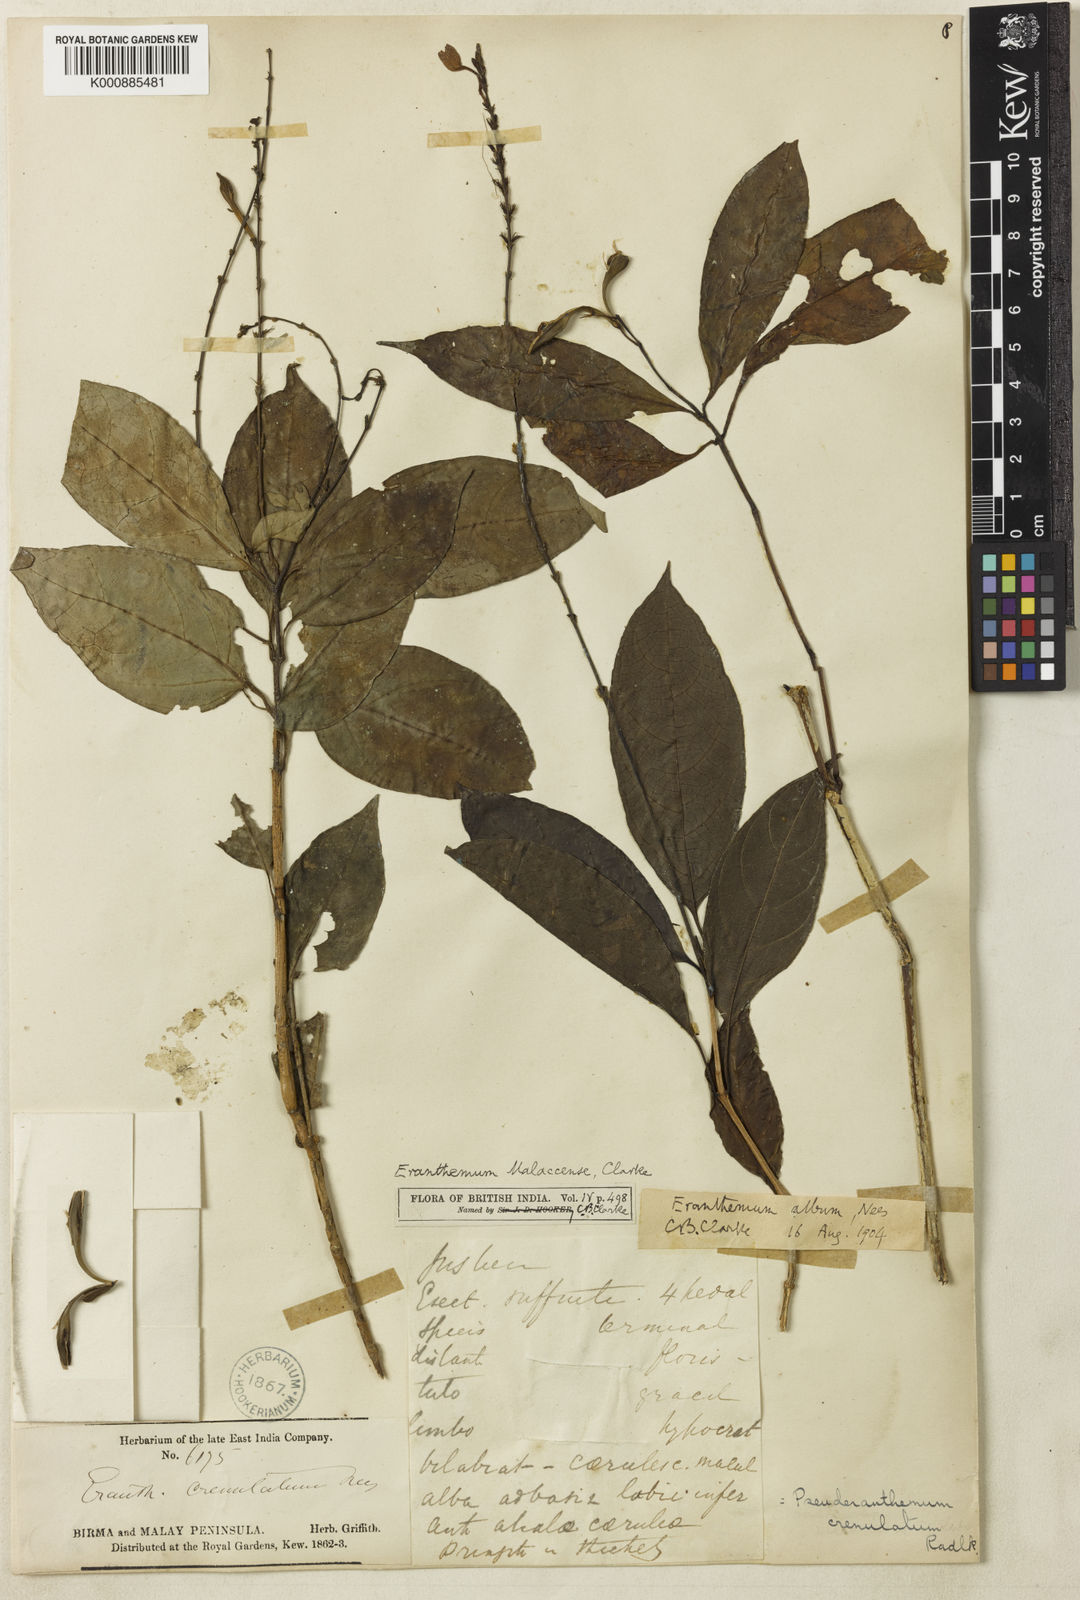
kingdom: Plantae
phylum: Tracheophyta
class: Magnoliopsida
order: Lamiales
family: Acanthaceae
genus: Pseuderanthemum
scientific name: Pseuderanthemum
